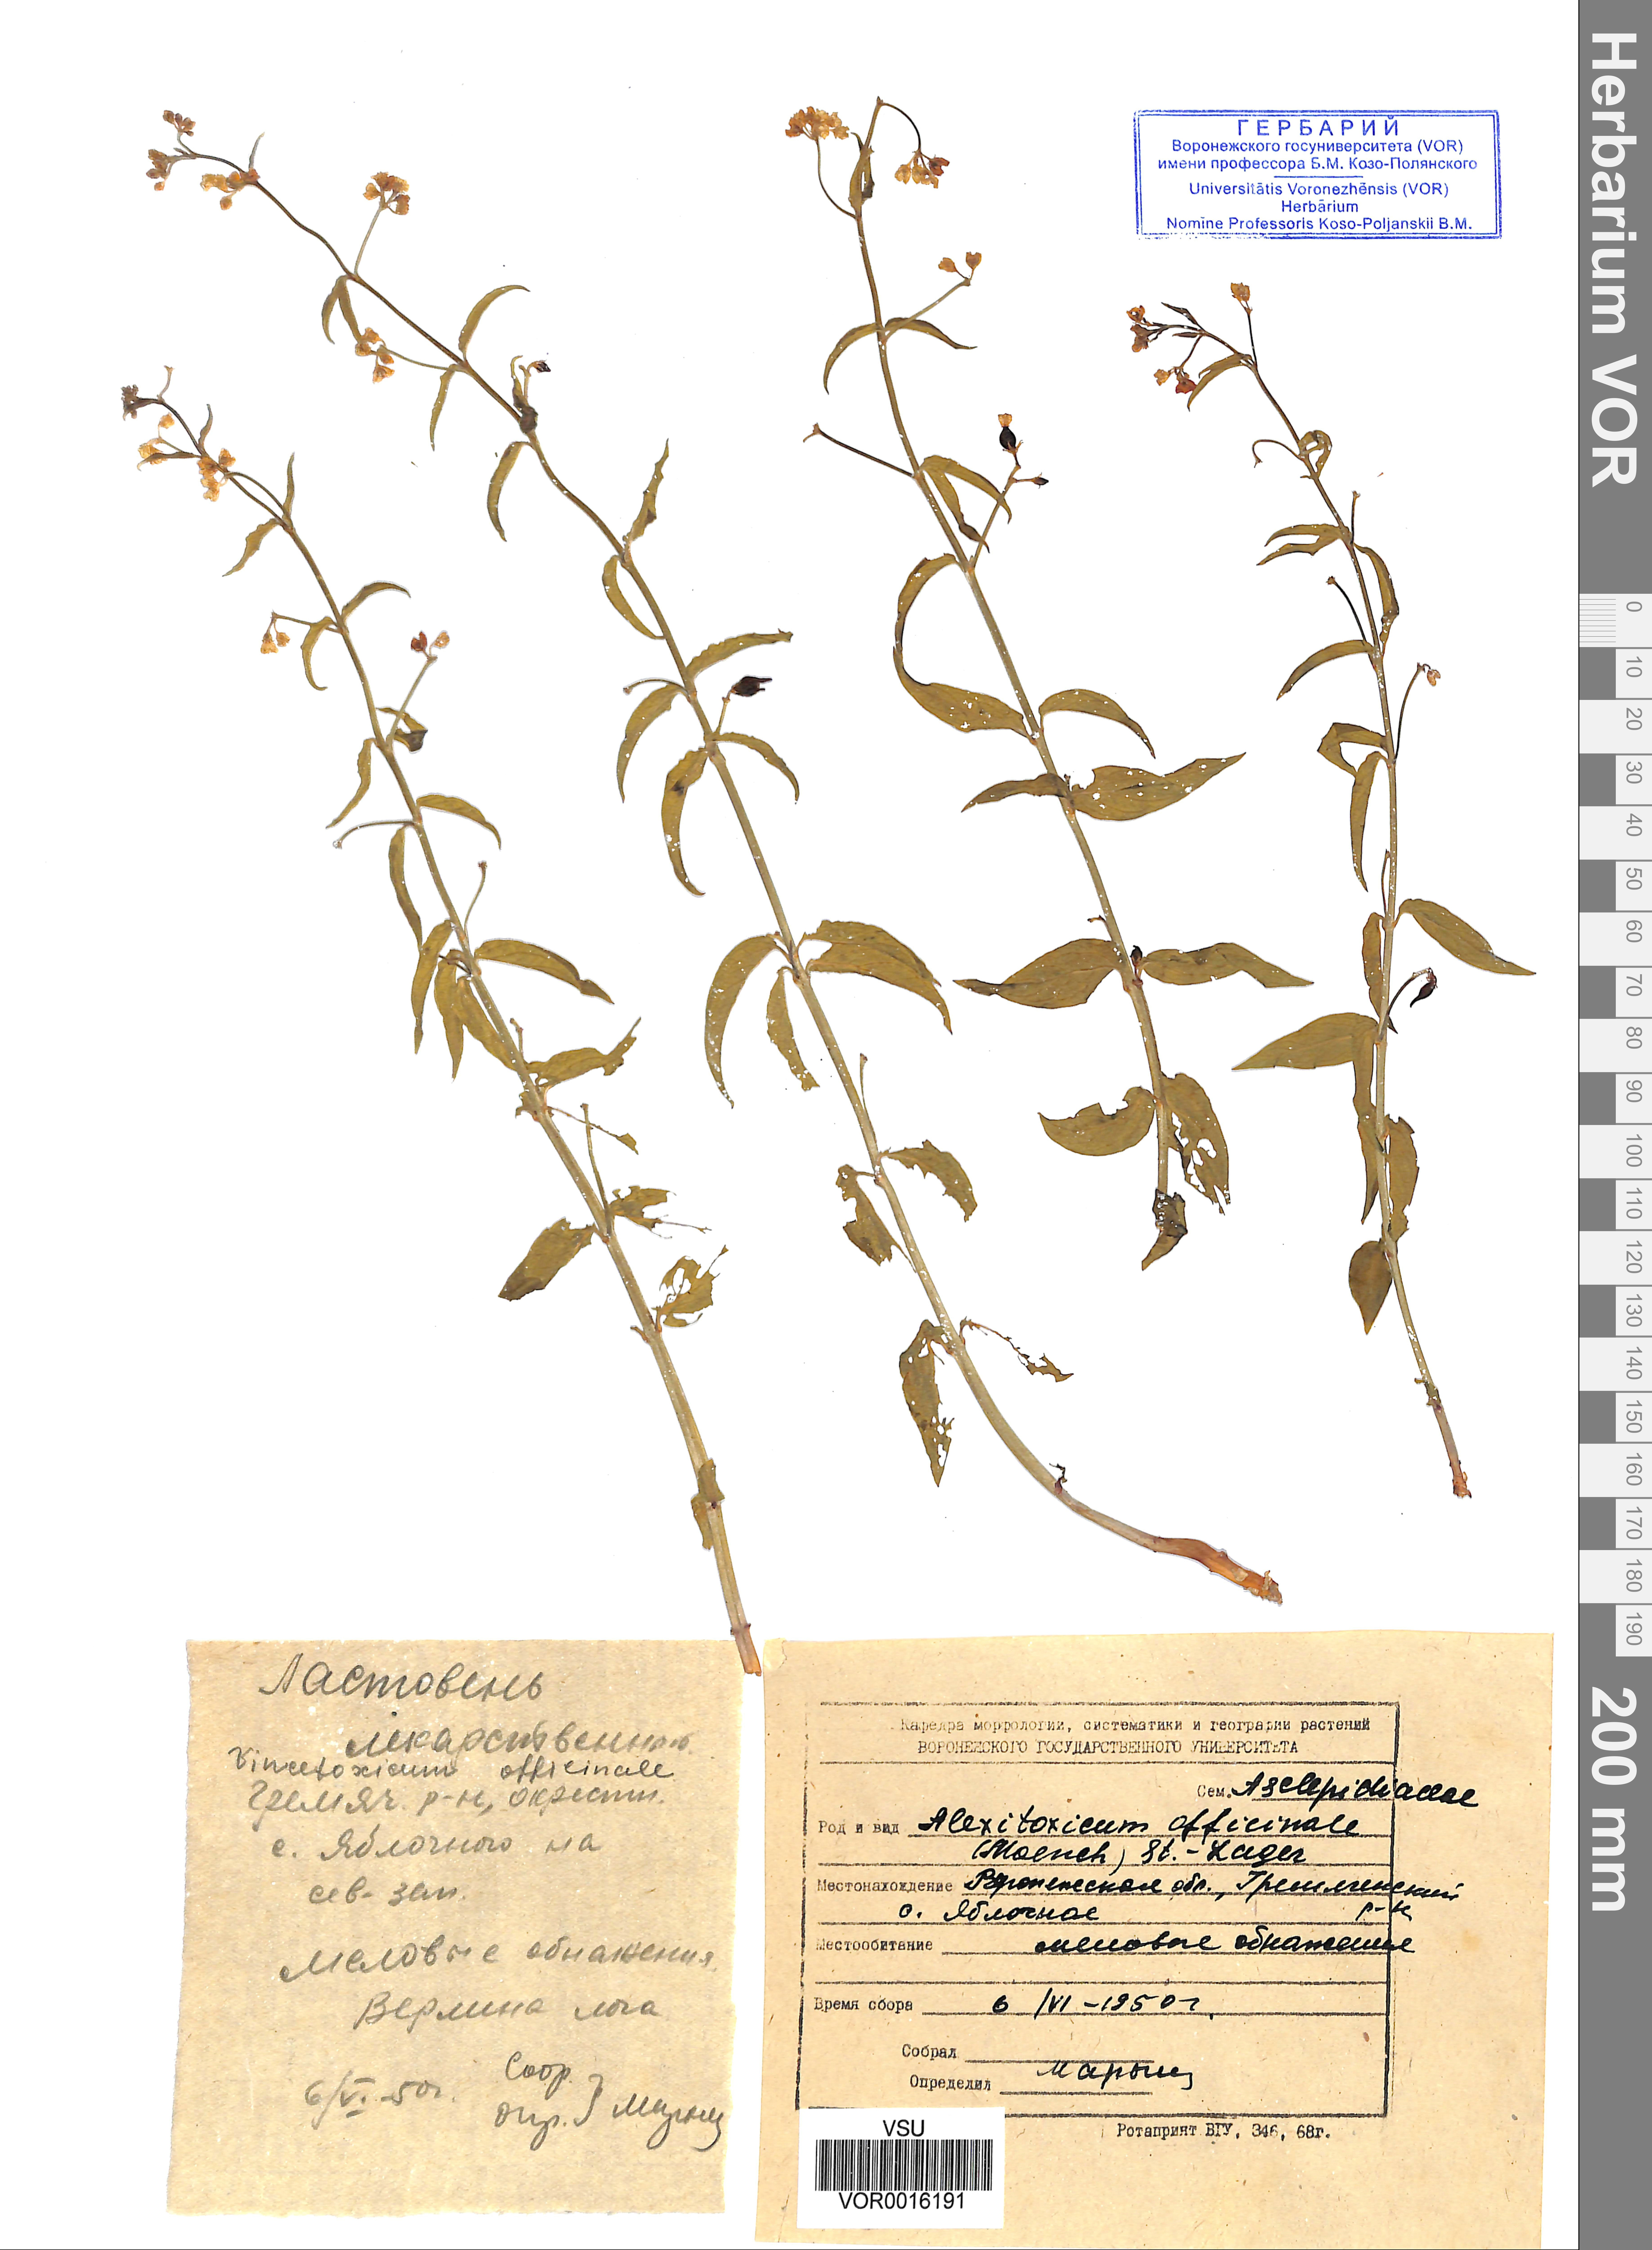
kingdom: Plantae
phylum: Tracheophyta
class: Magnoliopsida
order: Gentianales
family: Apocynaceae
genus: Vincetoxicum
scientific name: Vincetoxicum hirundinaria
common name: White swallowwort
